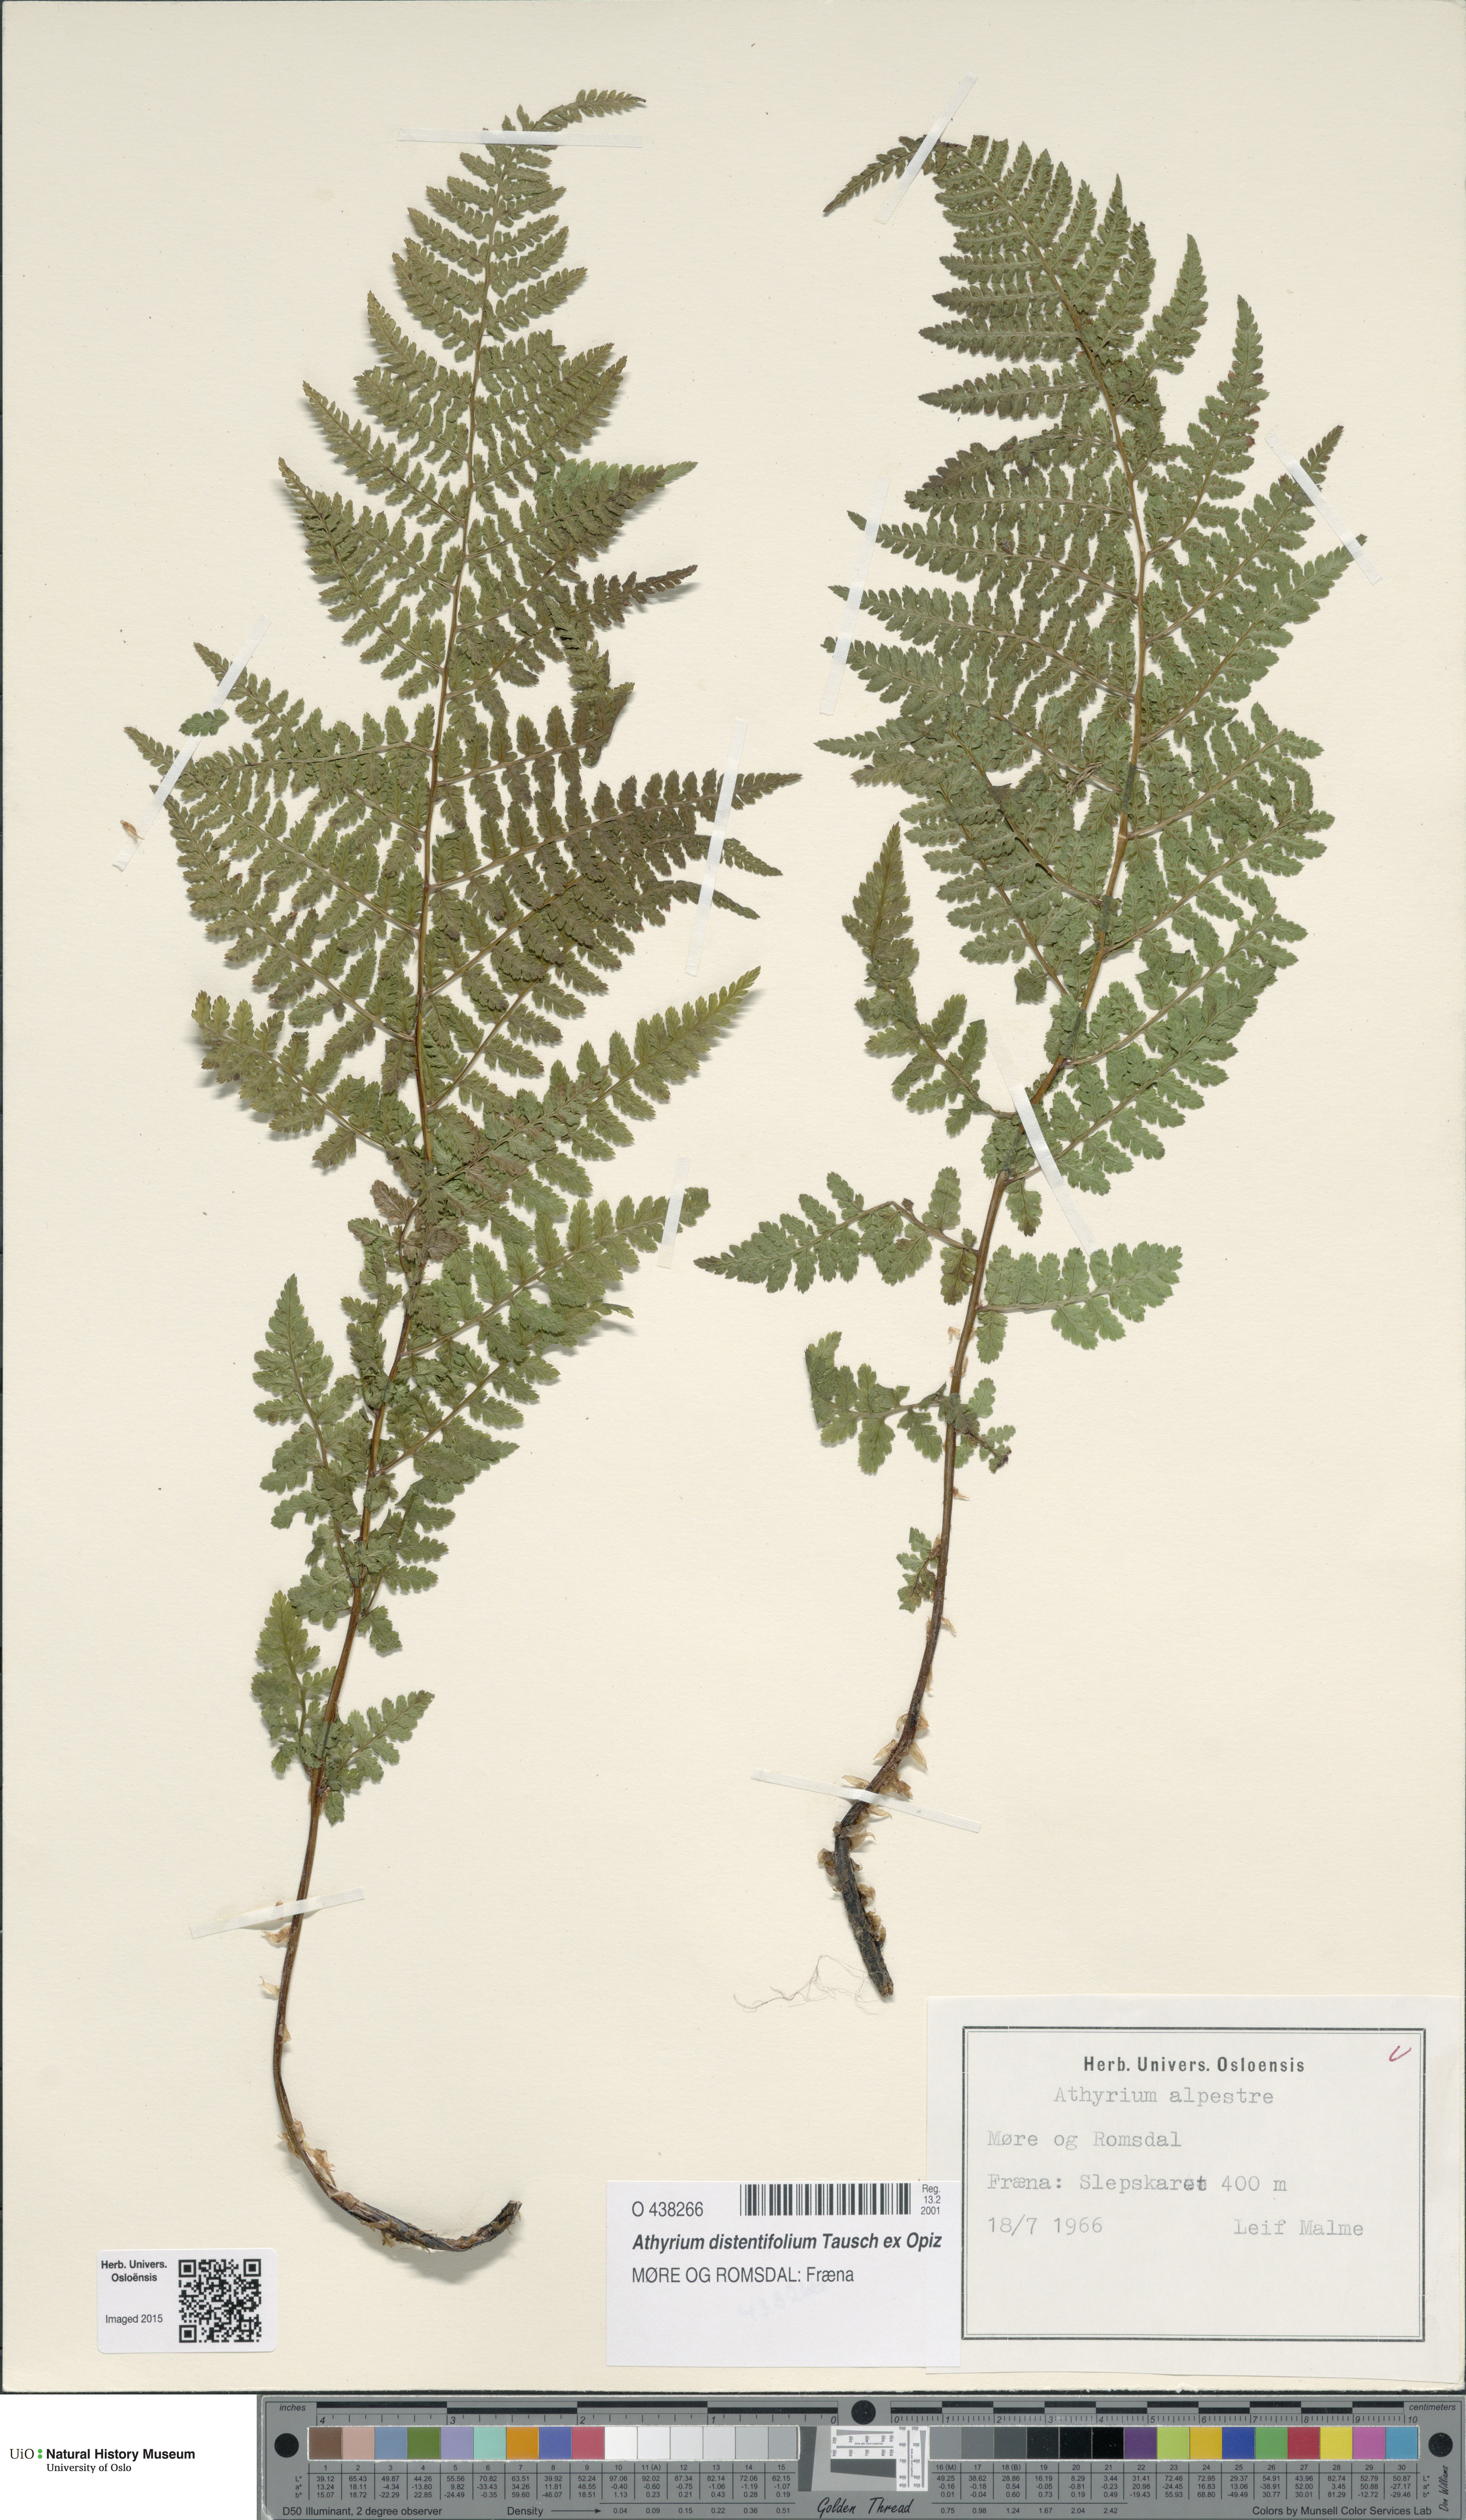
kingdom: Plantae
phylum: Tracheophyta
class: Polypodiopsida
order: Polypodiales
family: Athyriaceae
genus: Pseudathyrium
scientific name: Pseudathyrium alpestre
